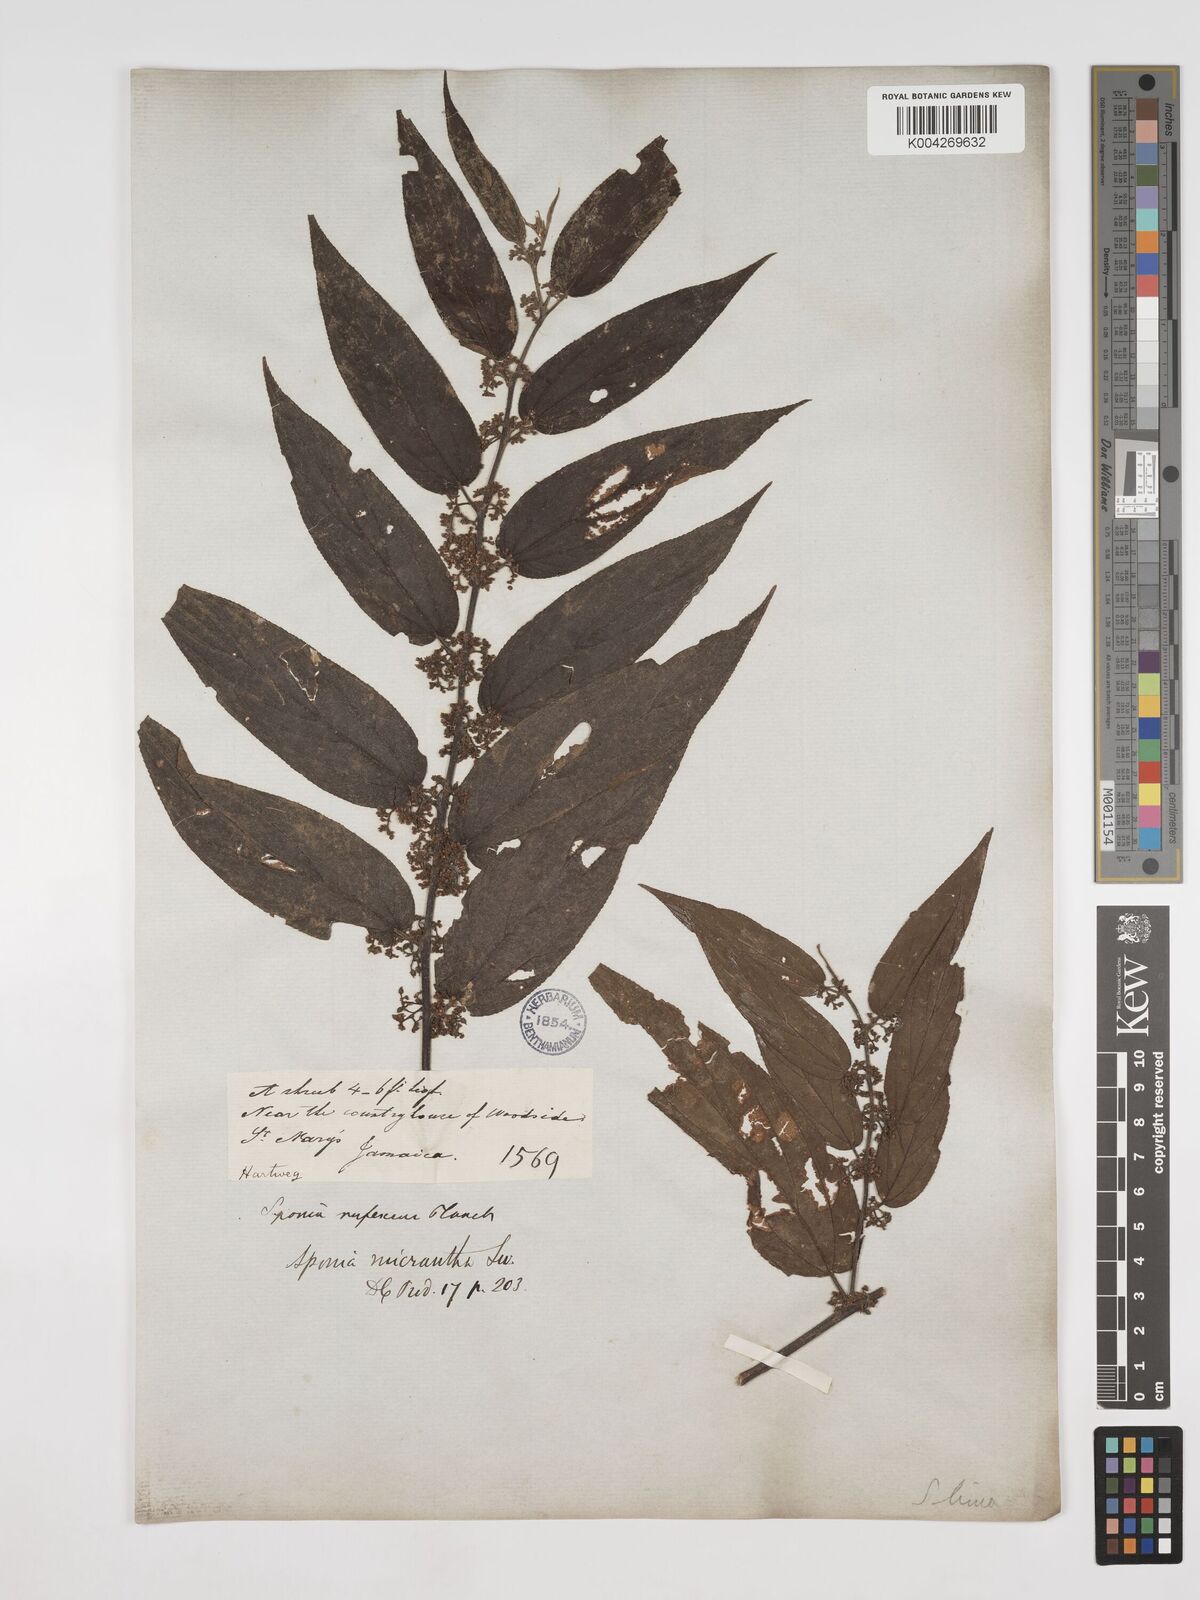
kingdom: Plantae
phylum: Tracheophyta
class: Magnoliopsida
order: Rosales
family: Cannabaceae
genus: Trema
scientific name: Trema micranthum
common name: Jamaican nettletree
